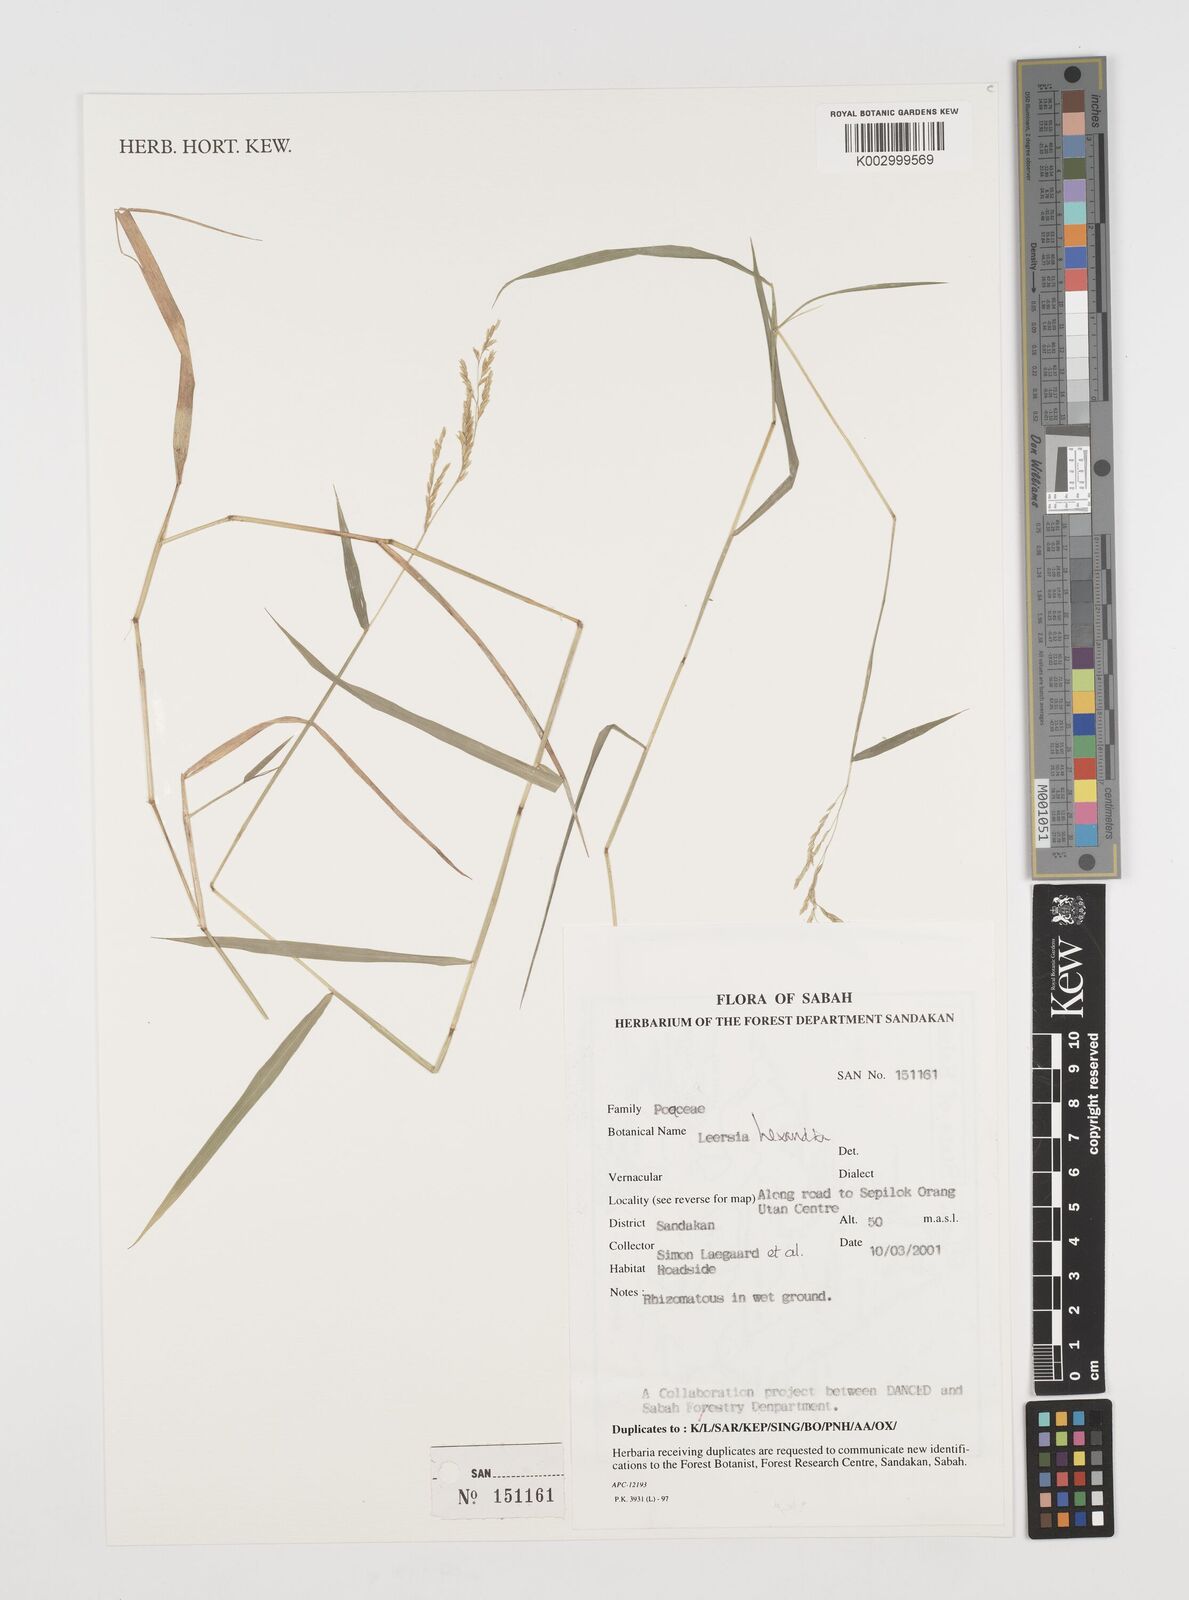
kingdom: Plantae
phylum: Tracheophyta
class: Liliopsida
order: Poales
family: Poaceae
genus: Leersia
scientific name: Leersia hexandra
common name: Southern cut grass
